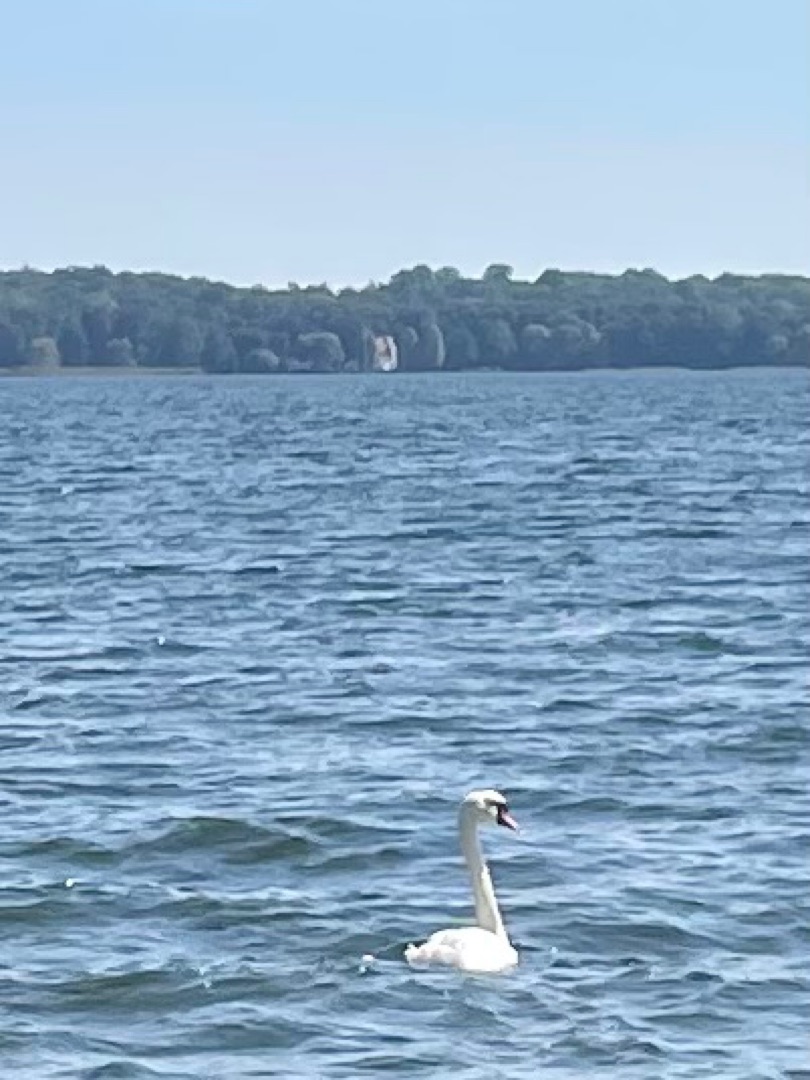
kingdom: Animalia
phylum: Chordata
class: Aves
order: Anseriformes
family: Anatidae
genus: Cygnus
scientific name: Cygnus olor
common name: Knopsvane
